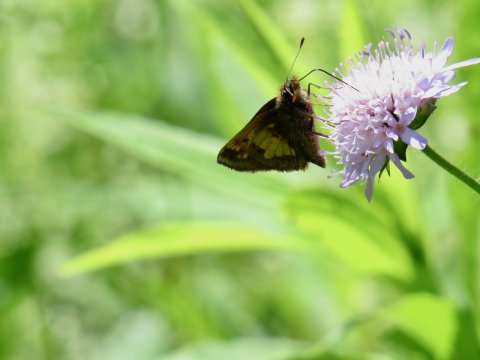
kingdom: Animalia
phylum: Arthropoda
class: Insecta
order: Lepidoptera
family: Hesperiidae
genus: Lon
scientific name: Lon hobomok
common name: Hobomok Skipper
